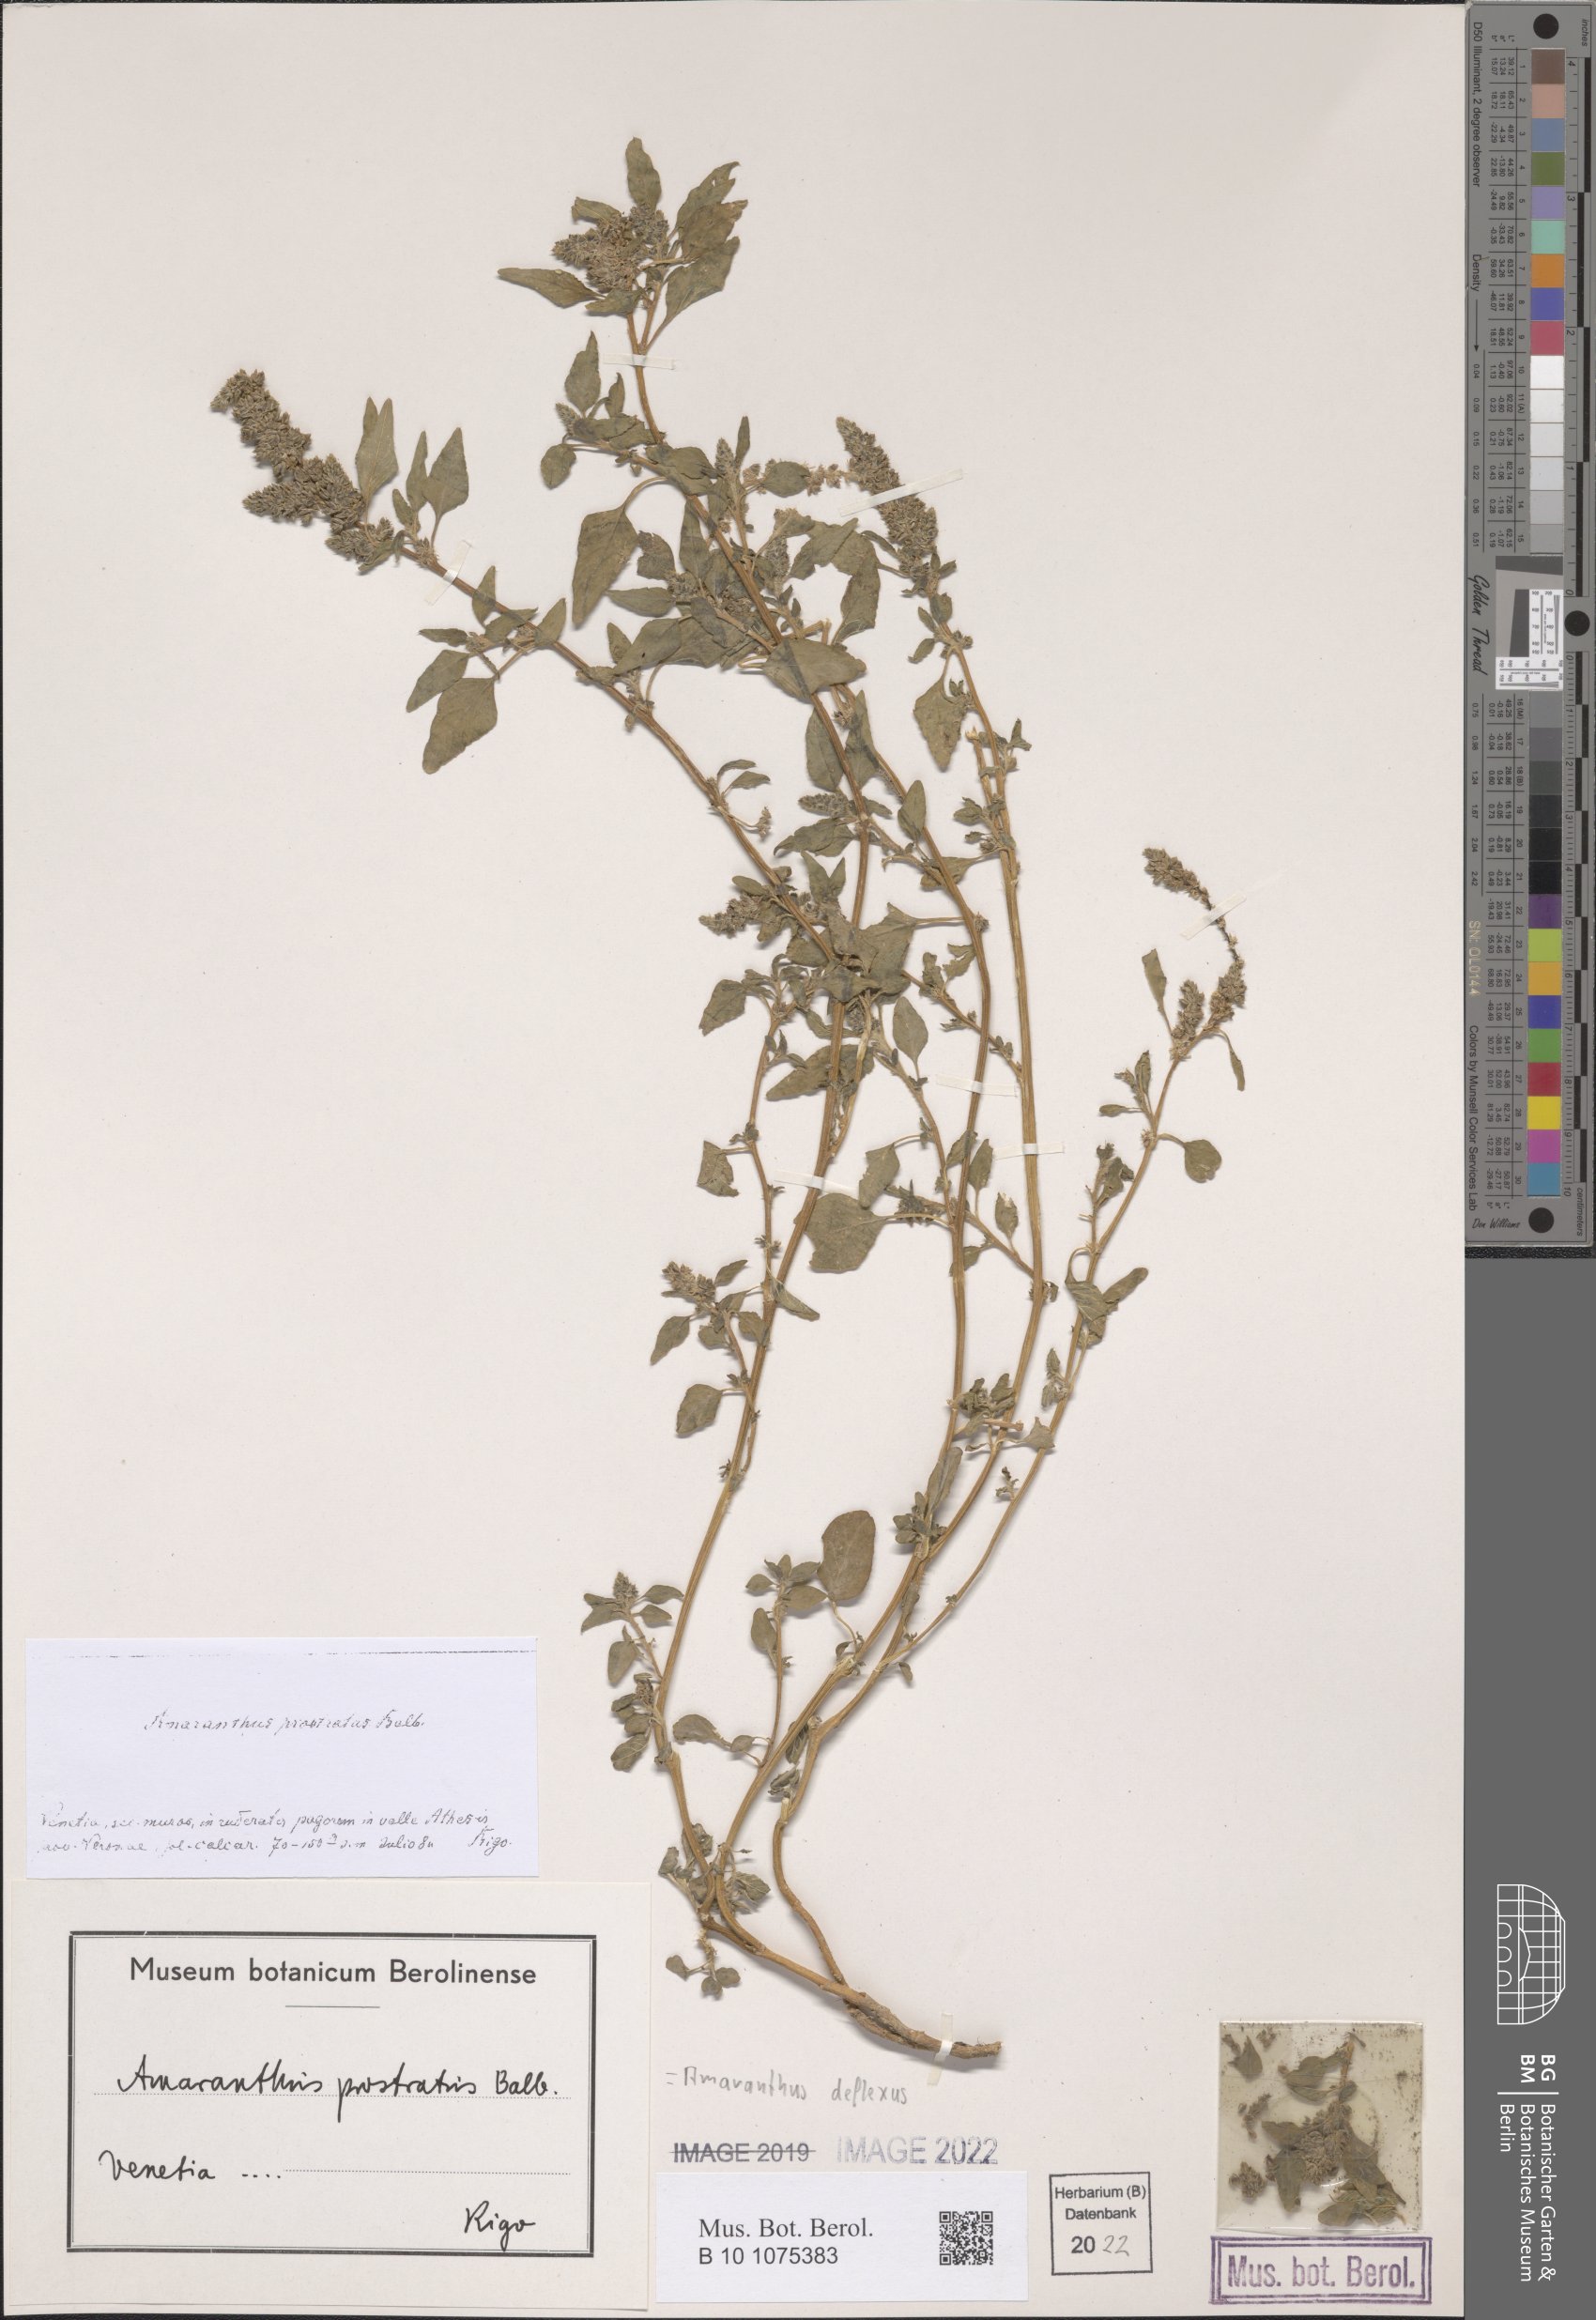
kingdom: Plantae
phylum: Tracheophyta
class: Magnoliopsida
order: Caryophyllales
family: Amaranthaceae
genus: Amaranthus
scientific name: Amaranthus deflexus
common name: Perennial pigweed
